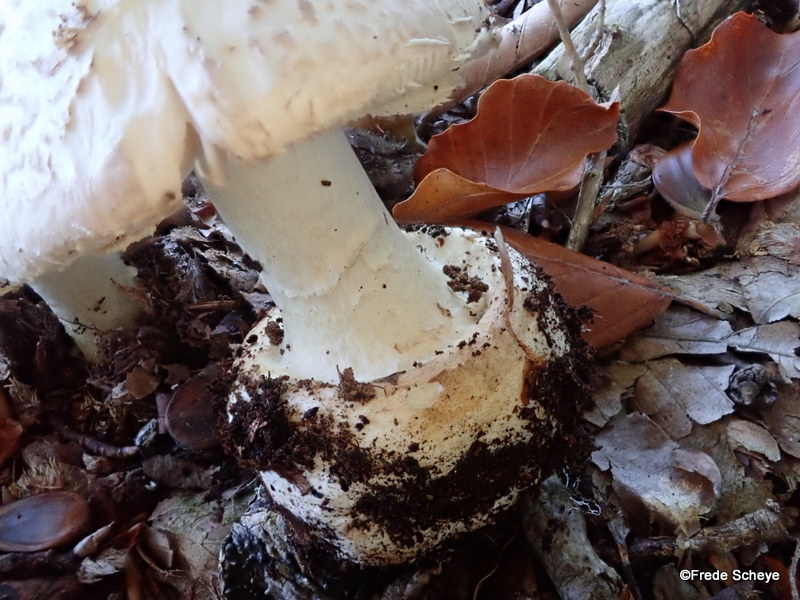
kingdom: Fungi
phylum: Basidiomycota
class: Agaricomycetes
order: Agaricales
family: Amanitaceae
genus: Amanita
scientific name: Amanita citrina
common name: kugleknoldet fluesvamp
